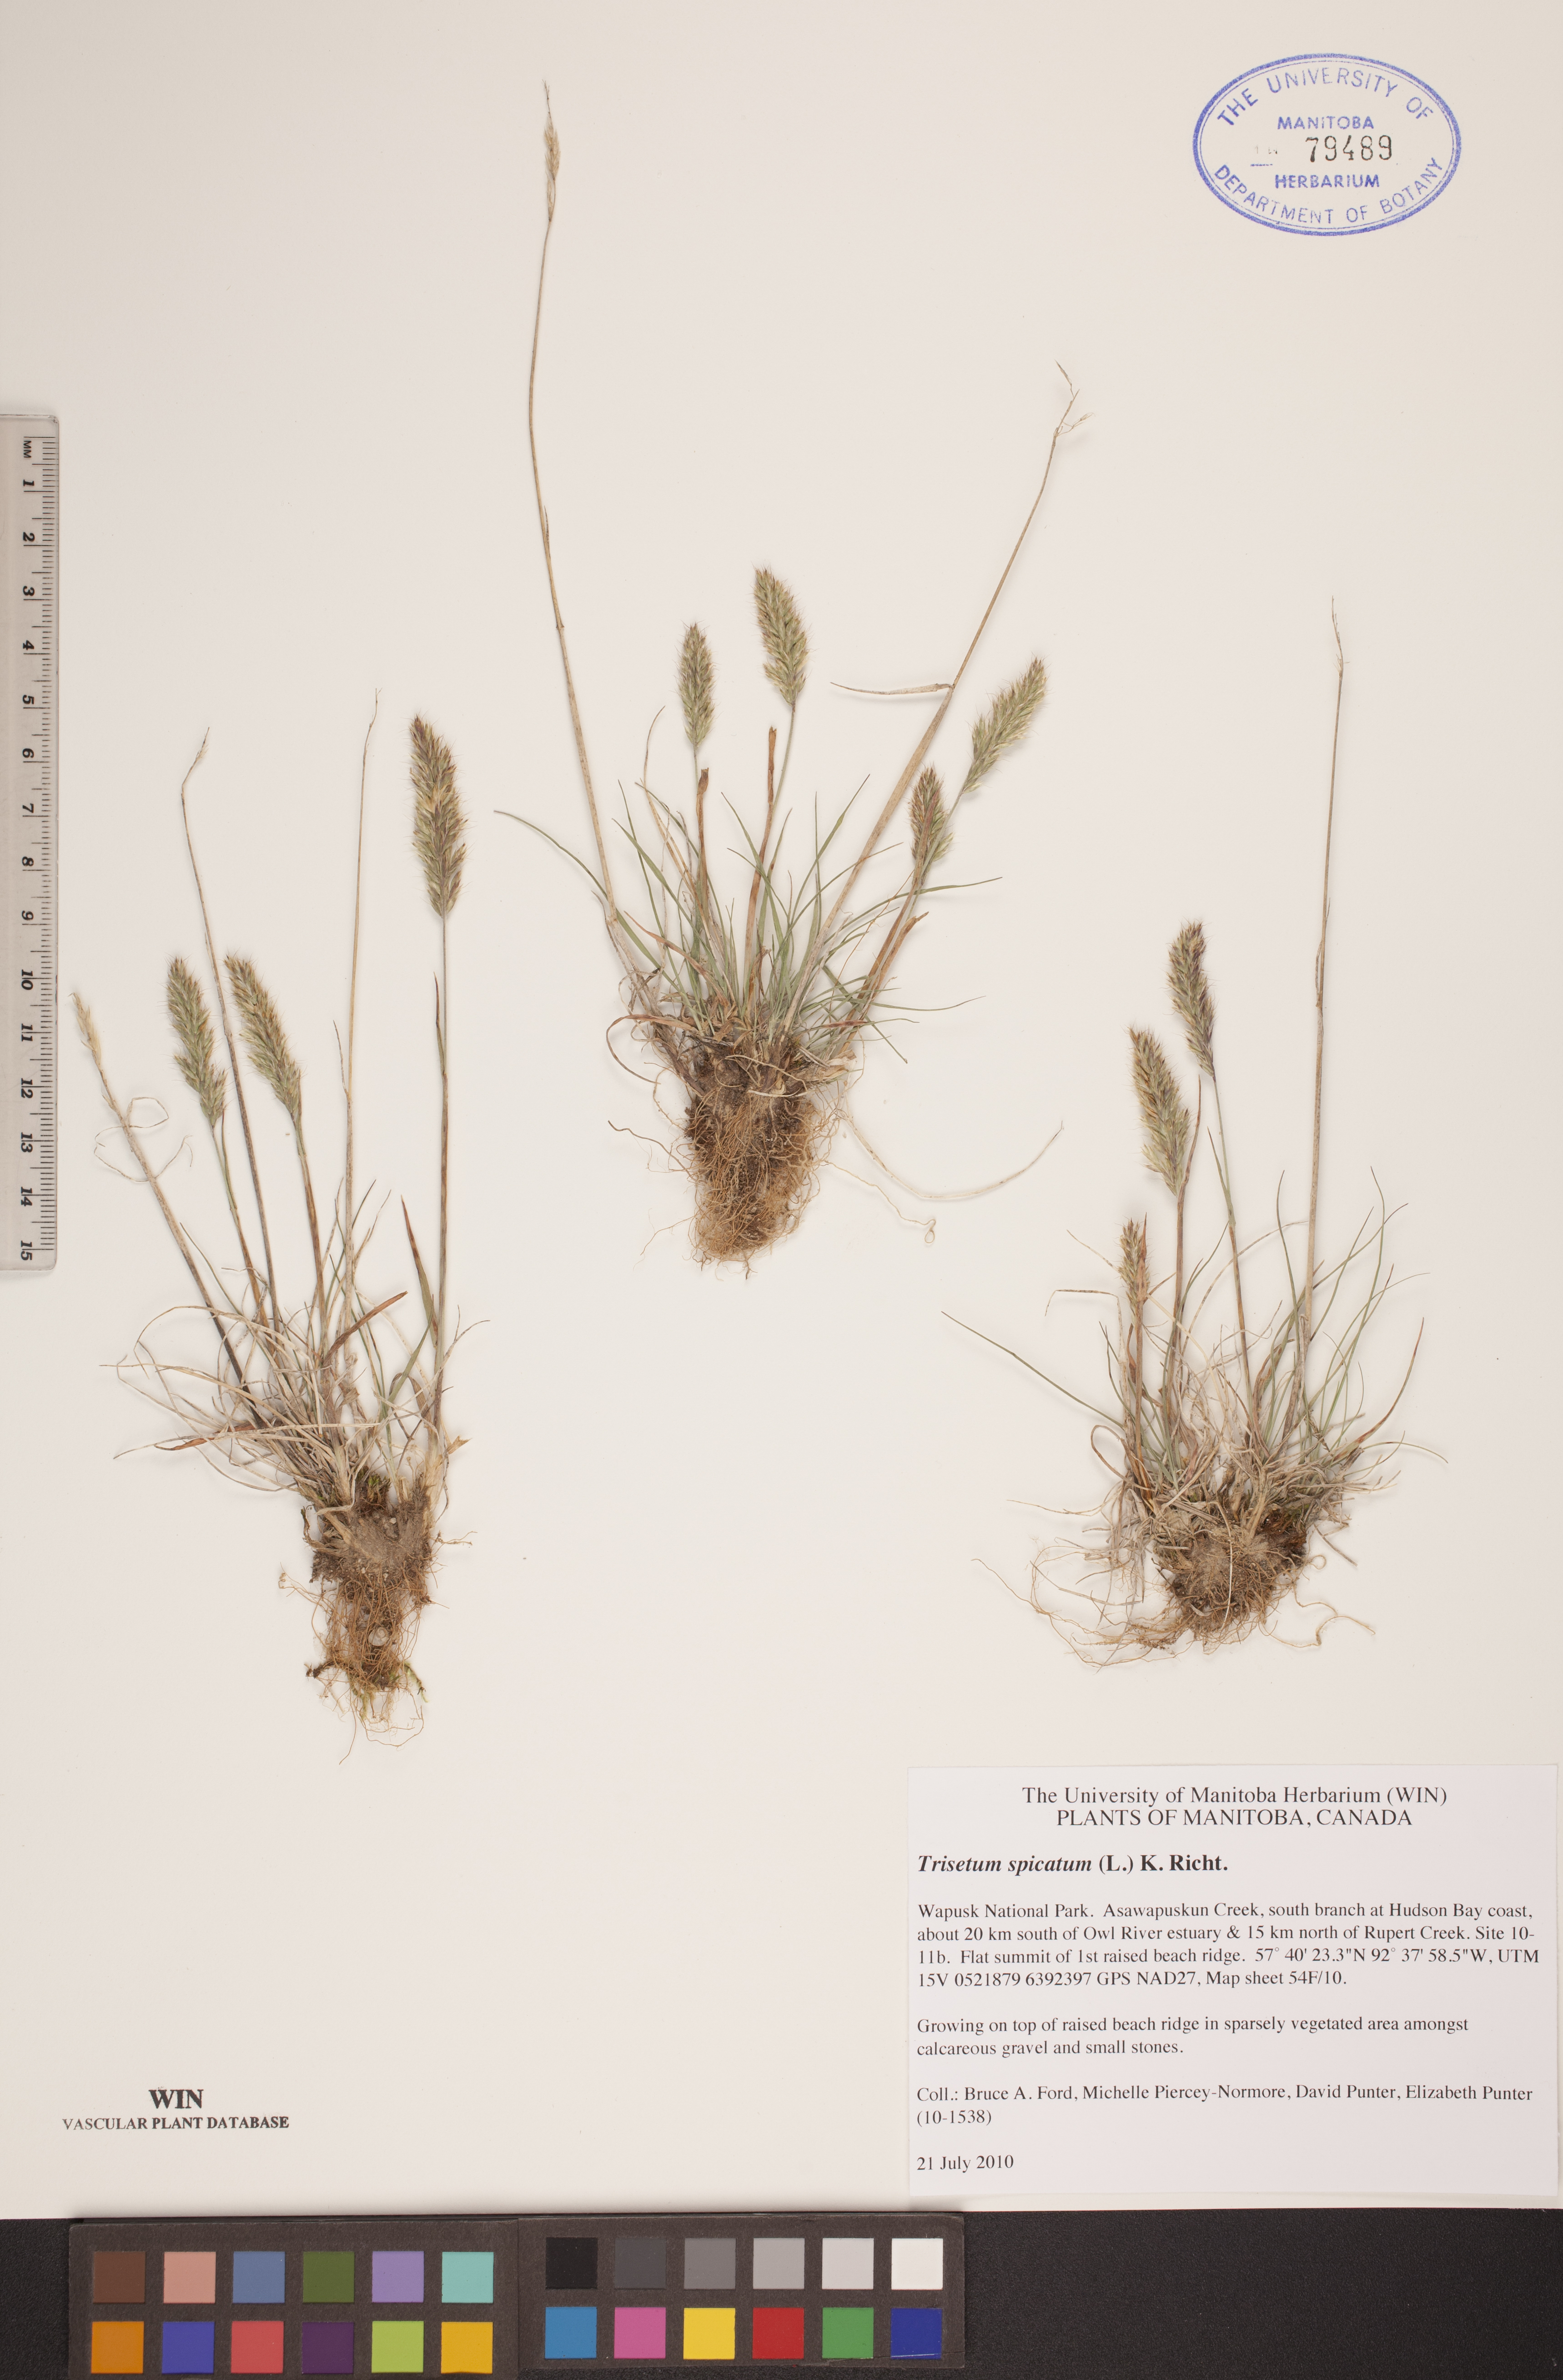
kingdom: Plantae
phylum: Tracheophyta
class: Liliopsida
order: Poales
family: Poaceae
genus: Koeleria
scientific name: Koeleria spicata
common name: Mountain trisetum
